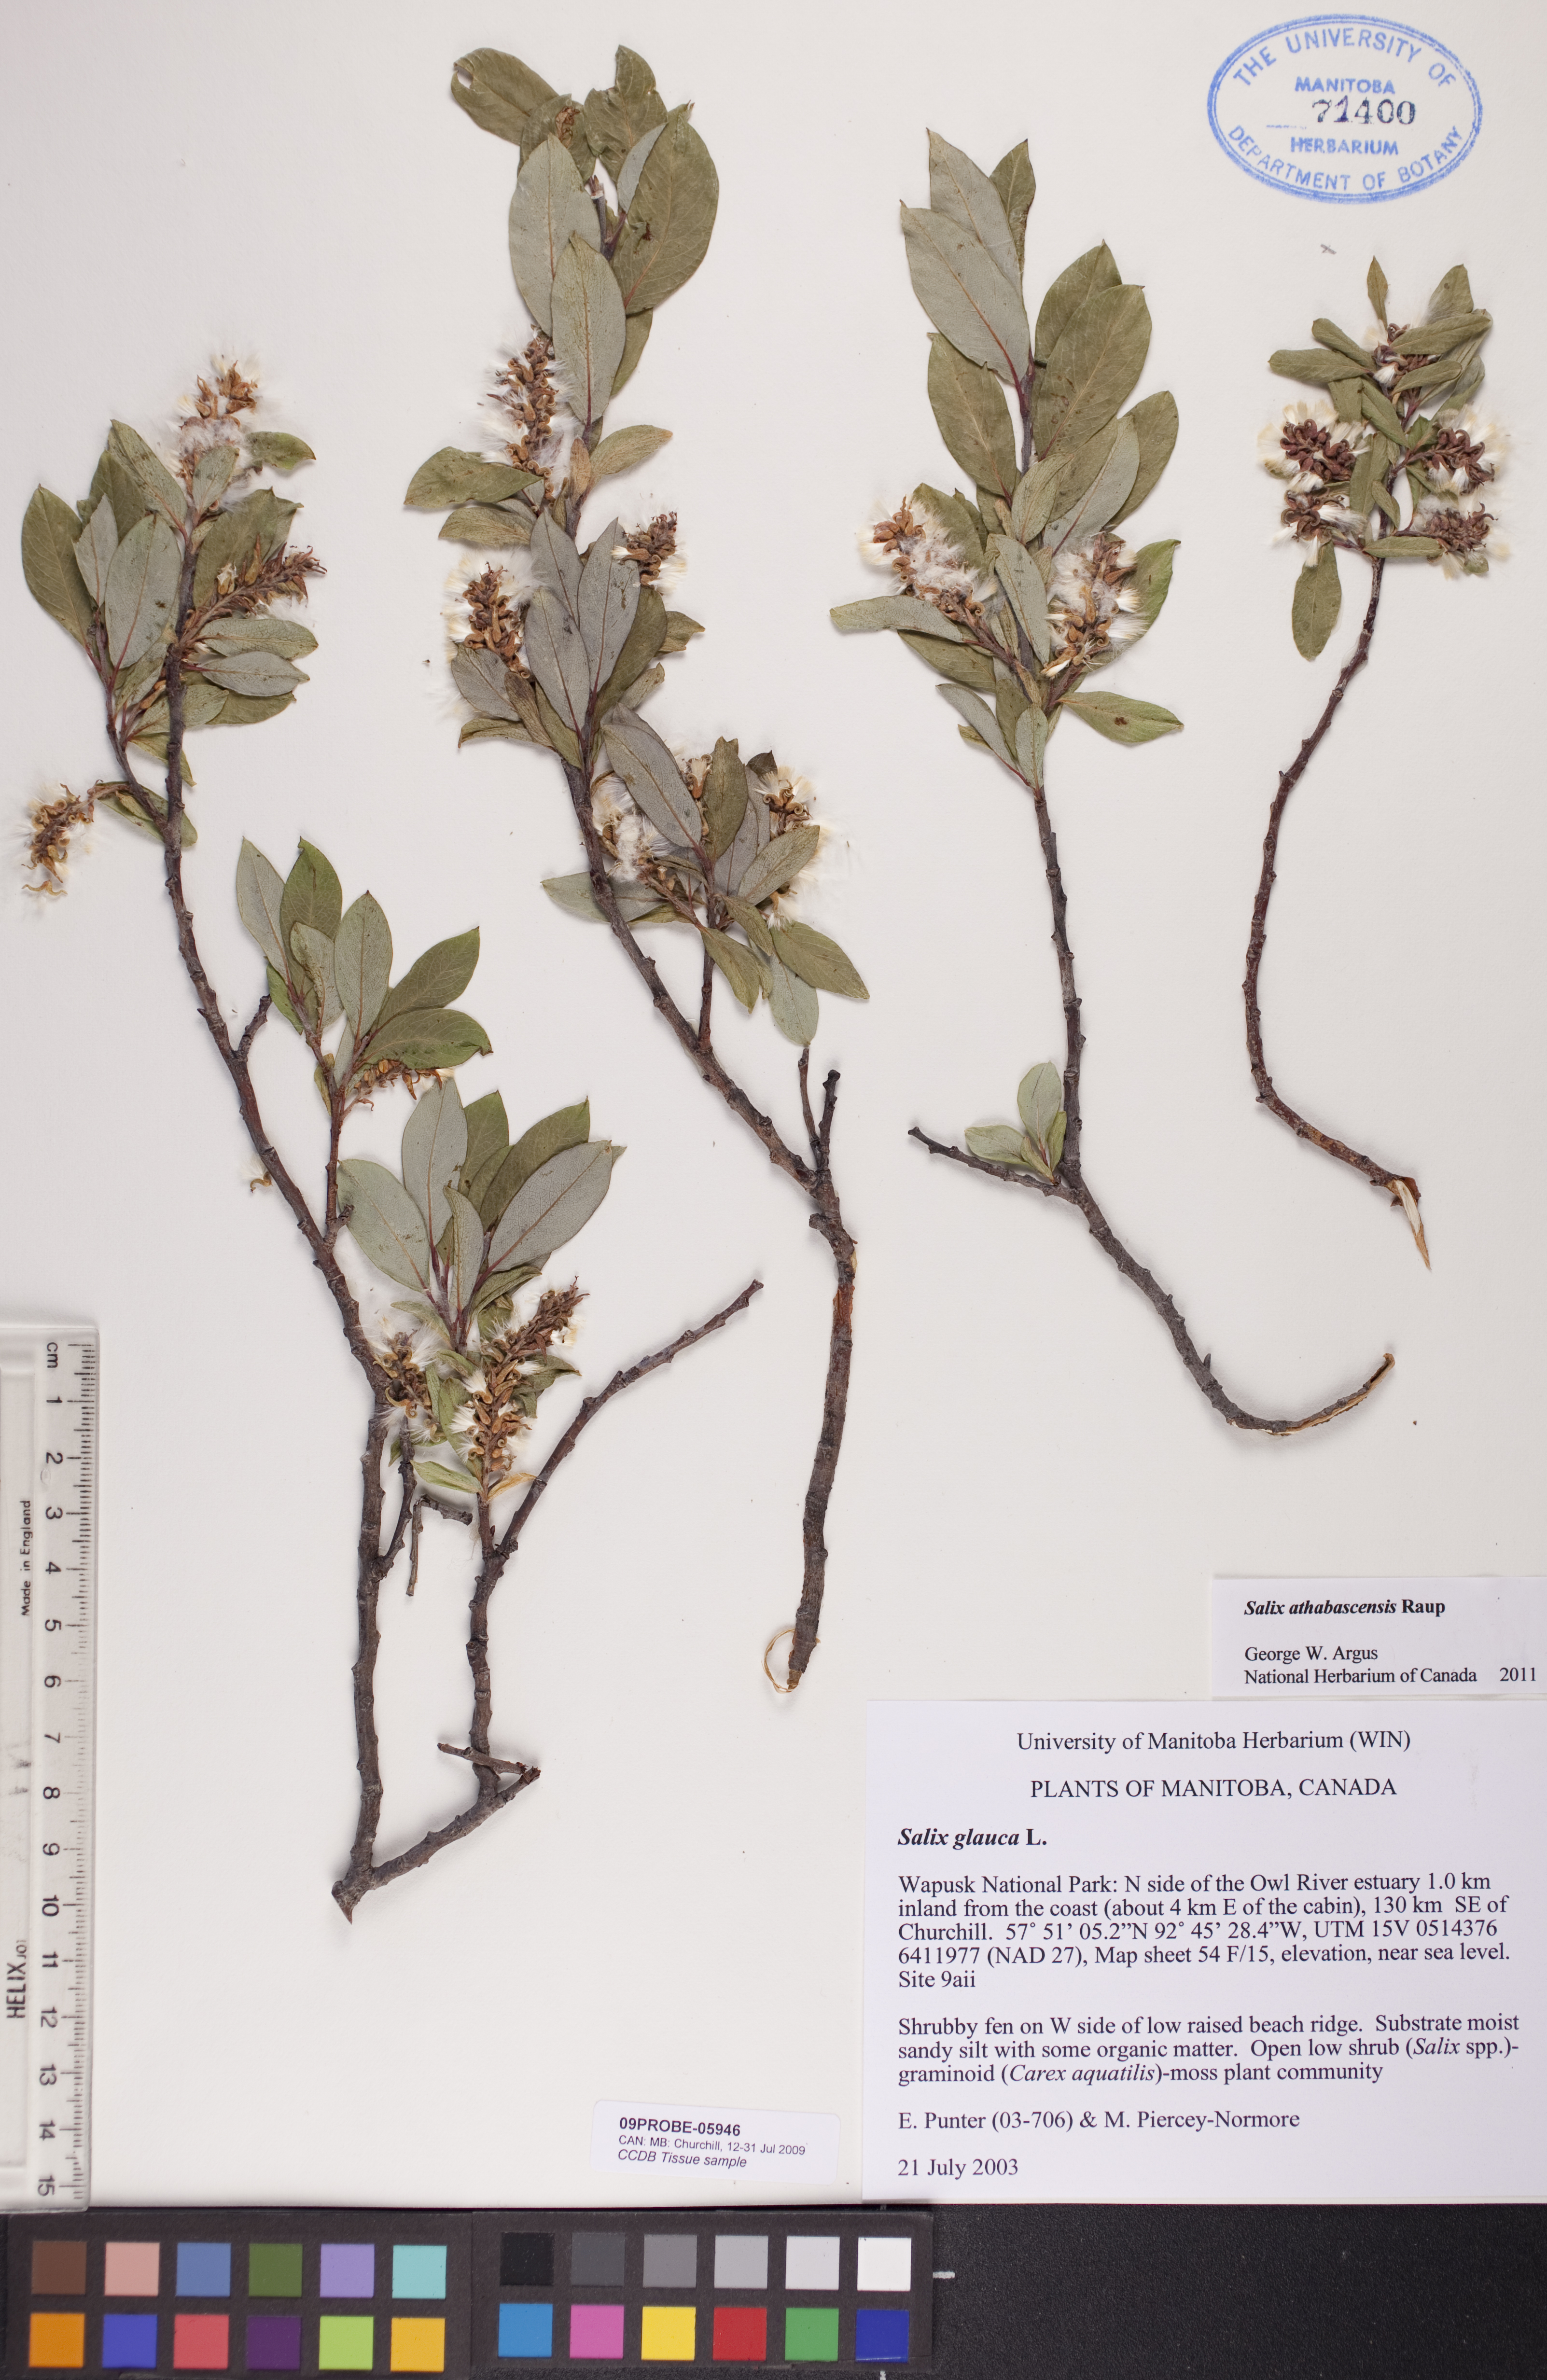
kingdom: Plantae
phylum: Tracheophyta
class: Magnoliopsida
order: Malpighiales
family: Salicaceae
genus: Salix
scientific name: Salix athabascensis
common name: Athabasca willow
